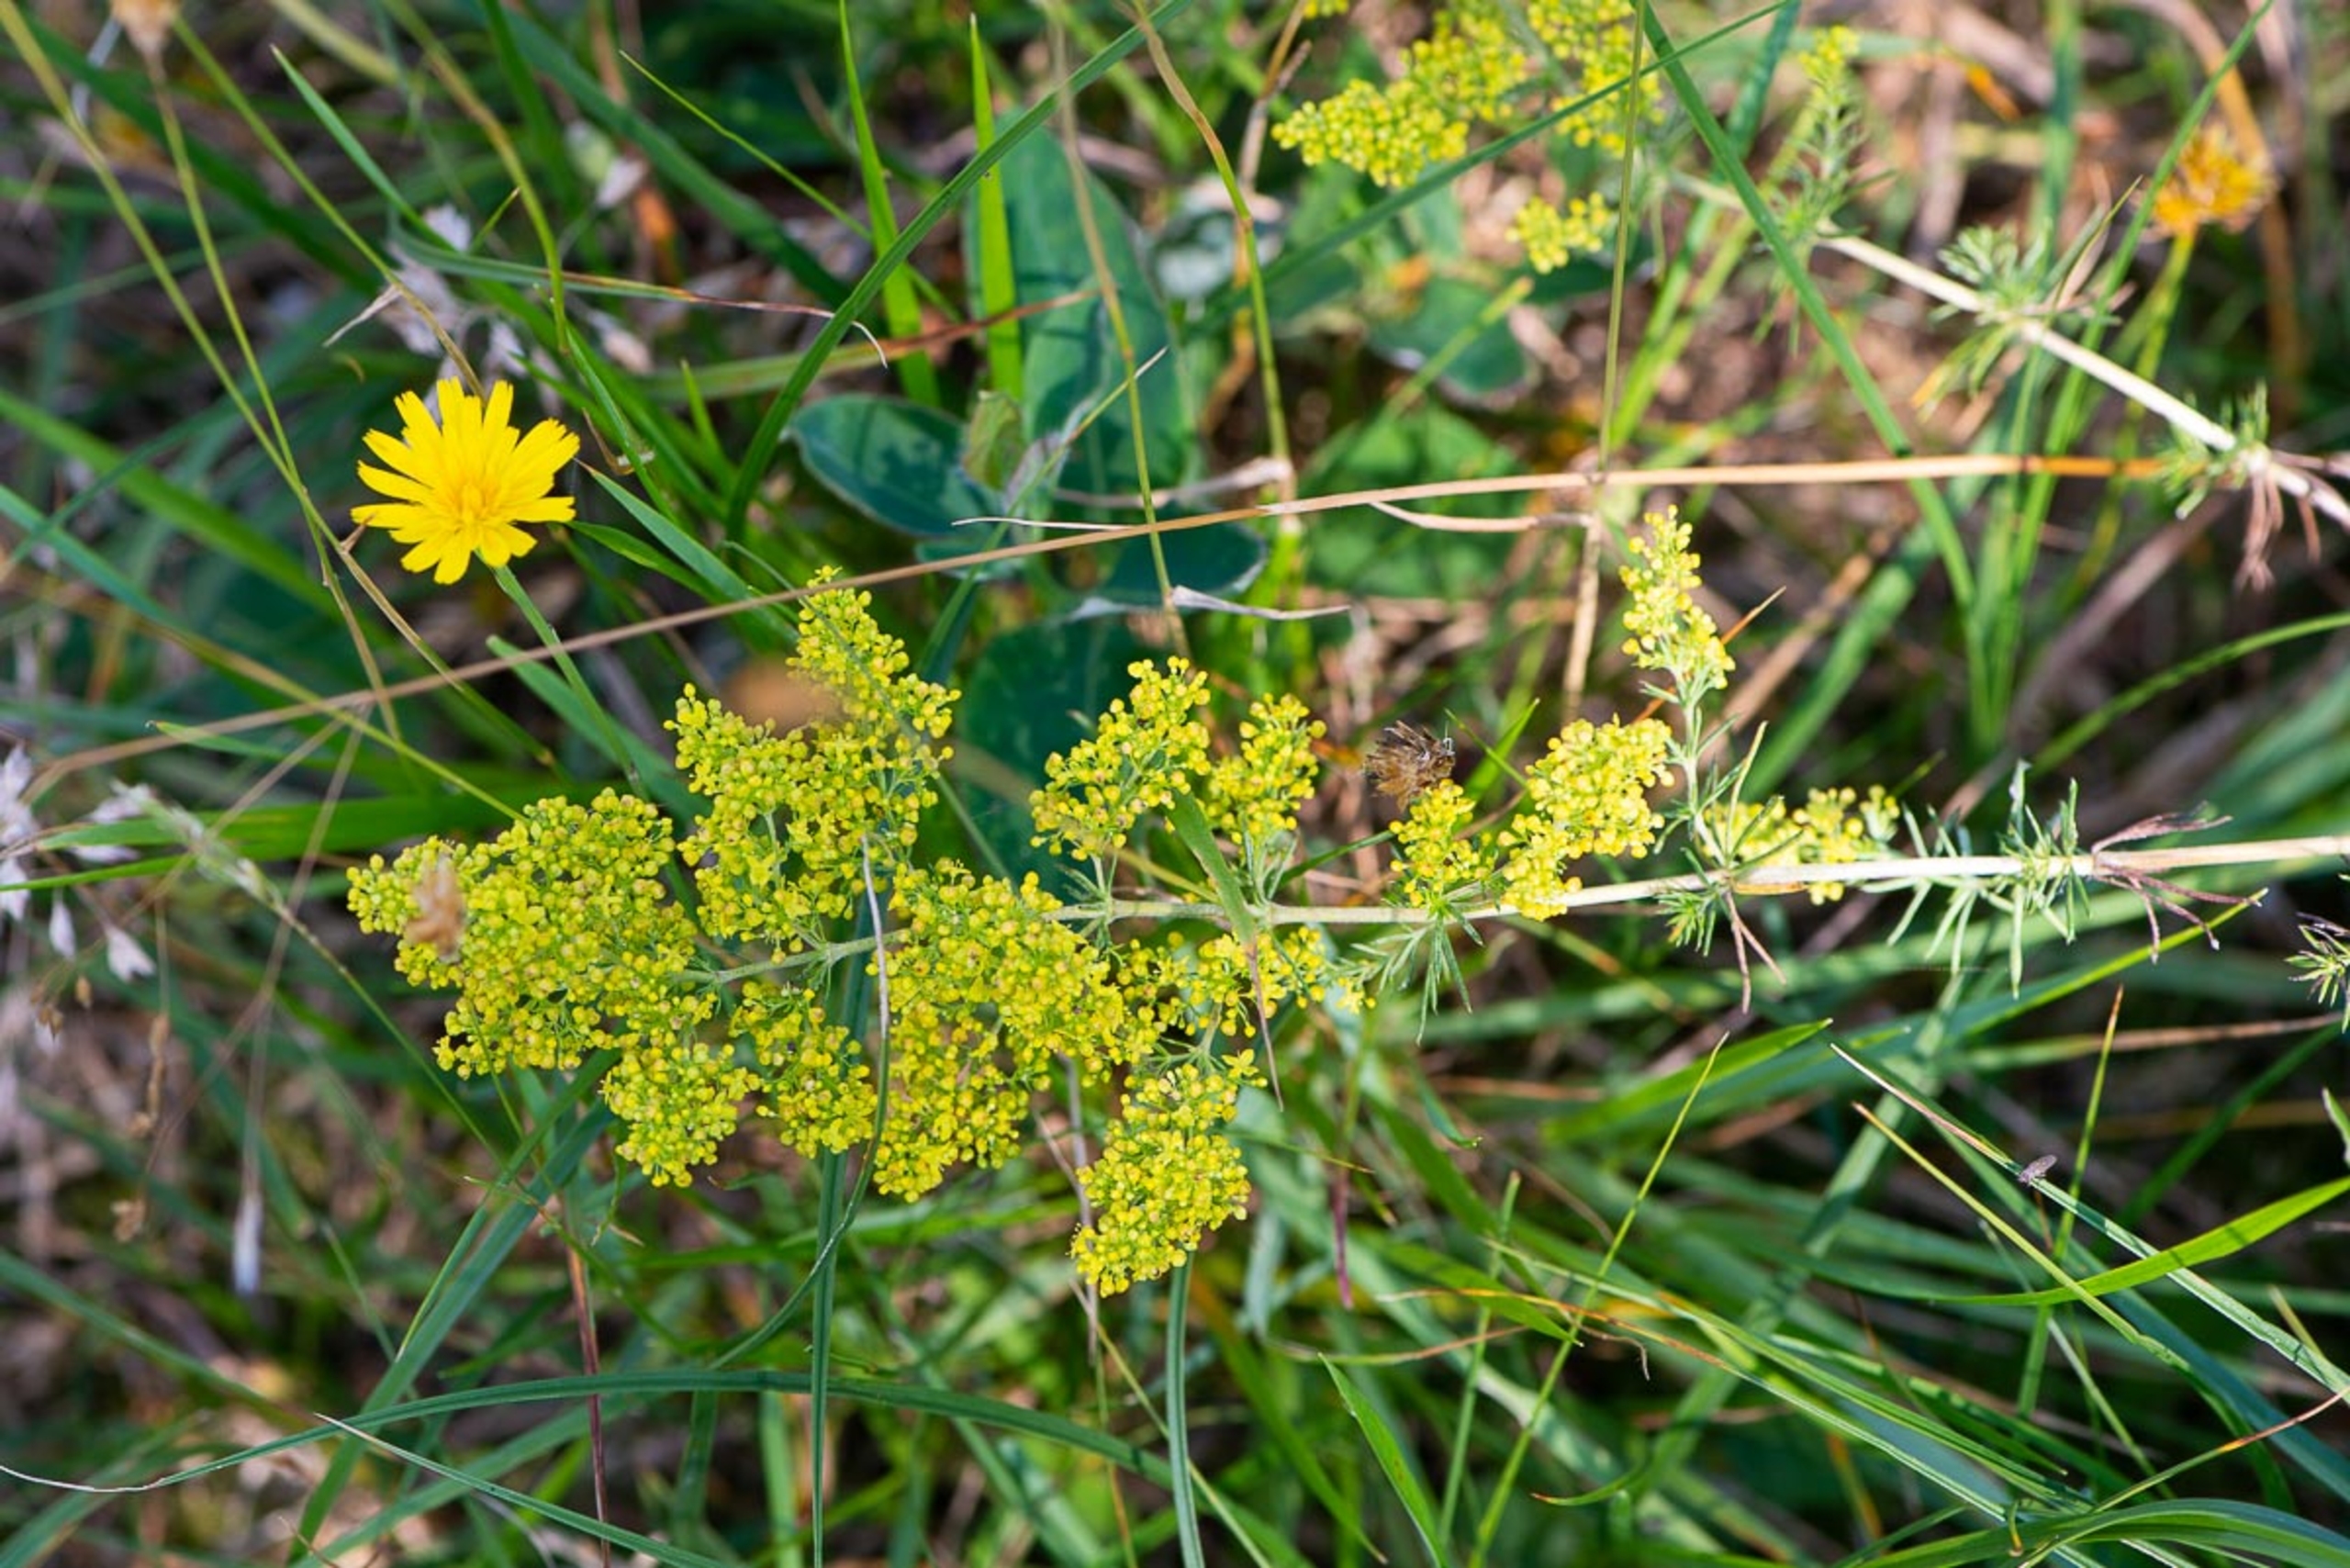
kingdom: Plantae
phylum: Tracheophyta
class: Magnoliopsida
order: Gentianales
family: Rubiaceae
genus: Galium
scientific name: Galium verum
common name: Gul snerre
